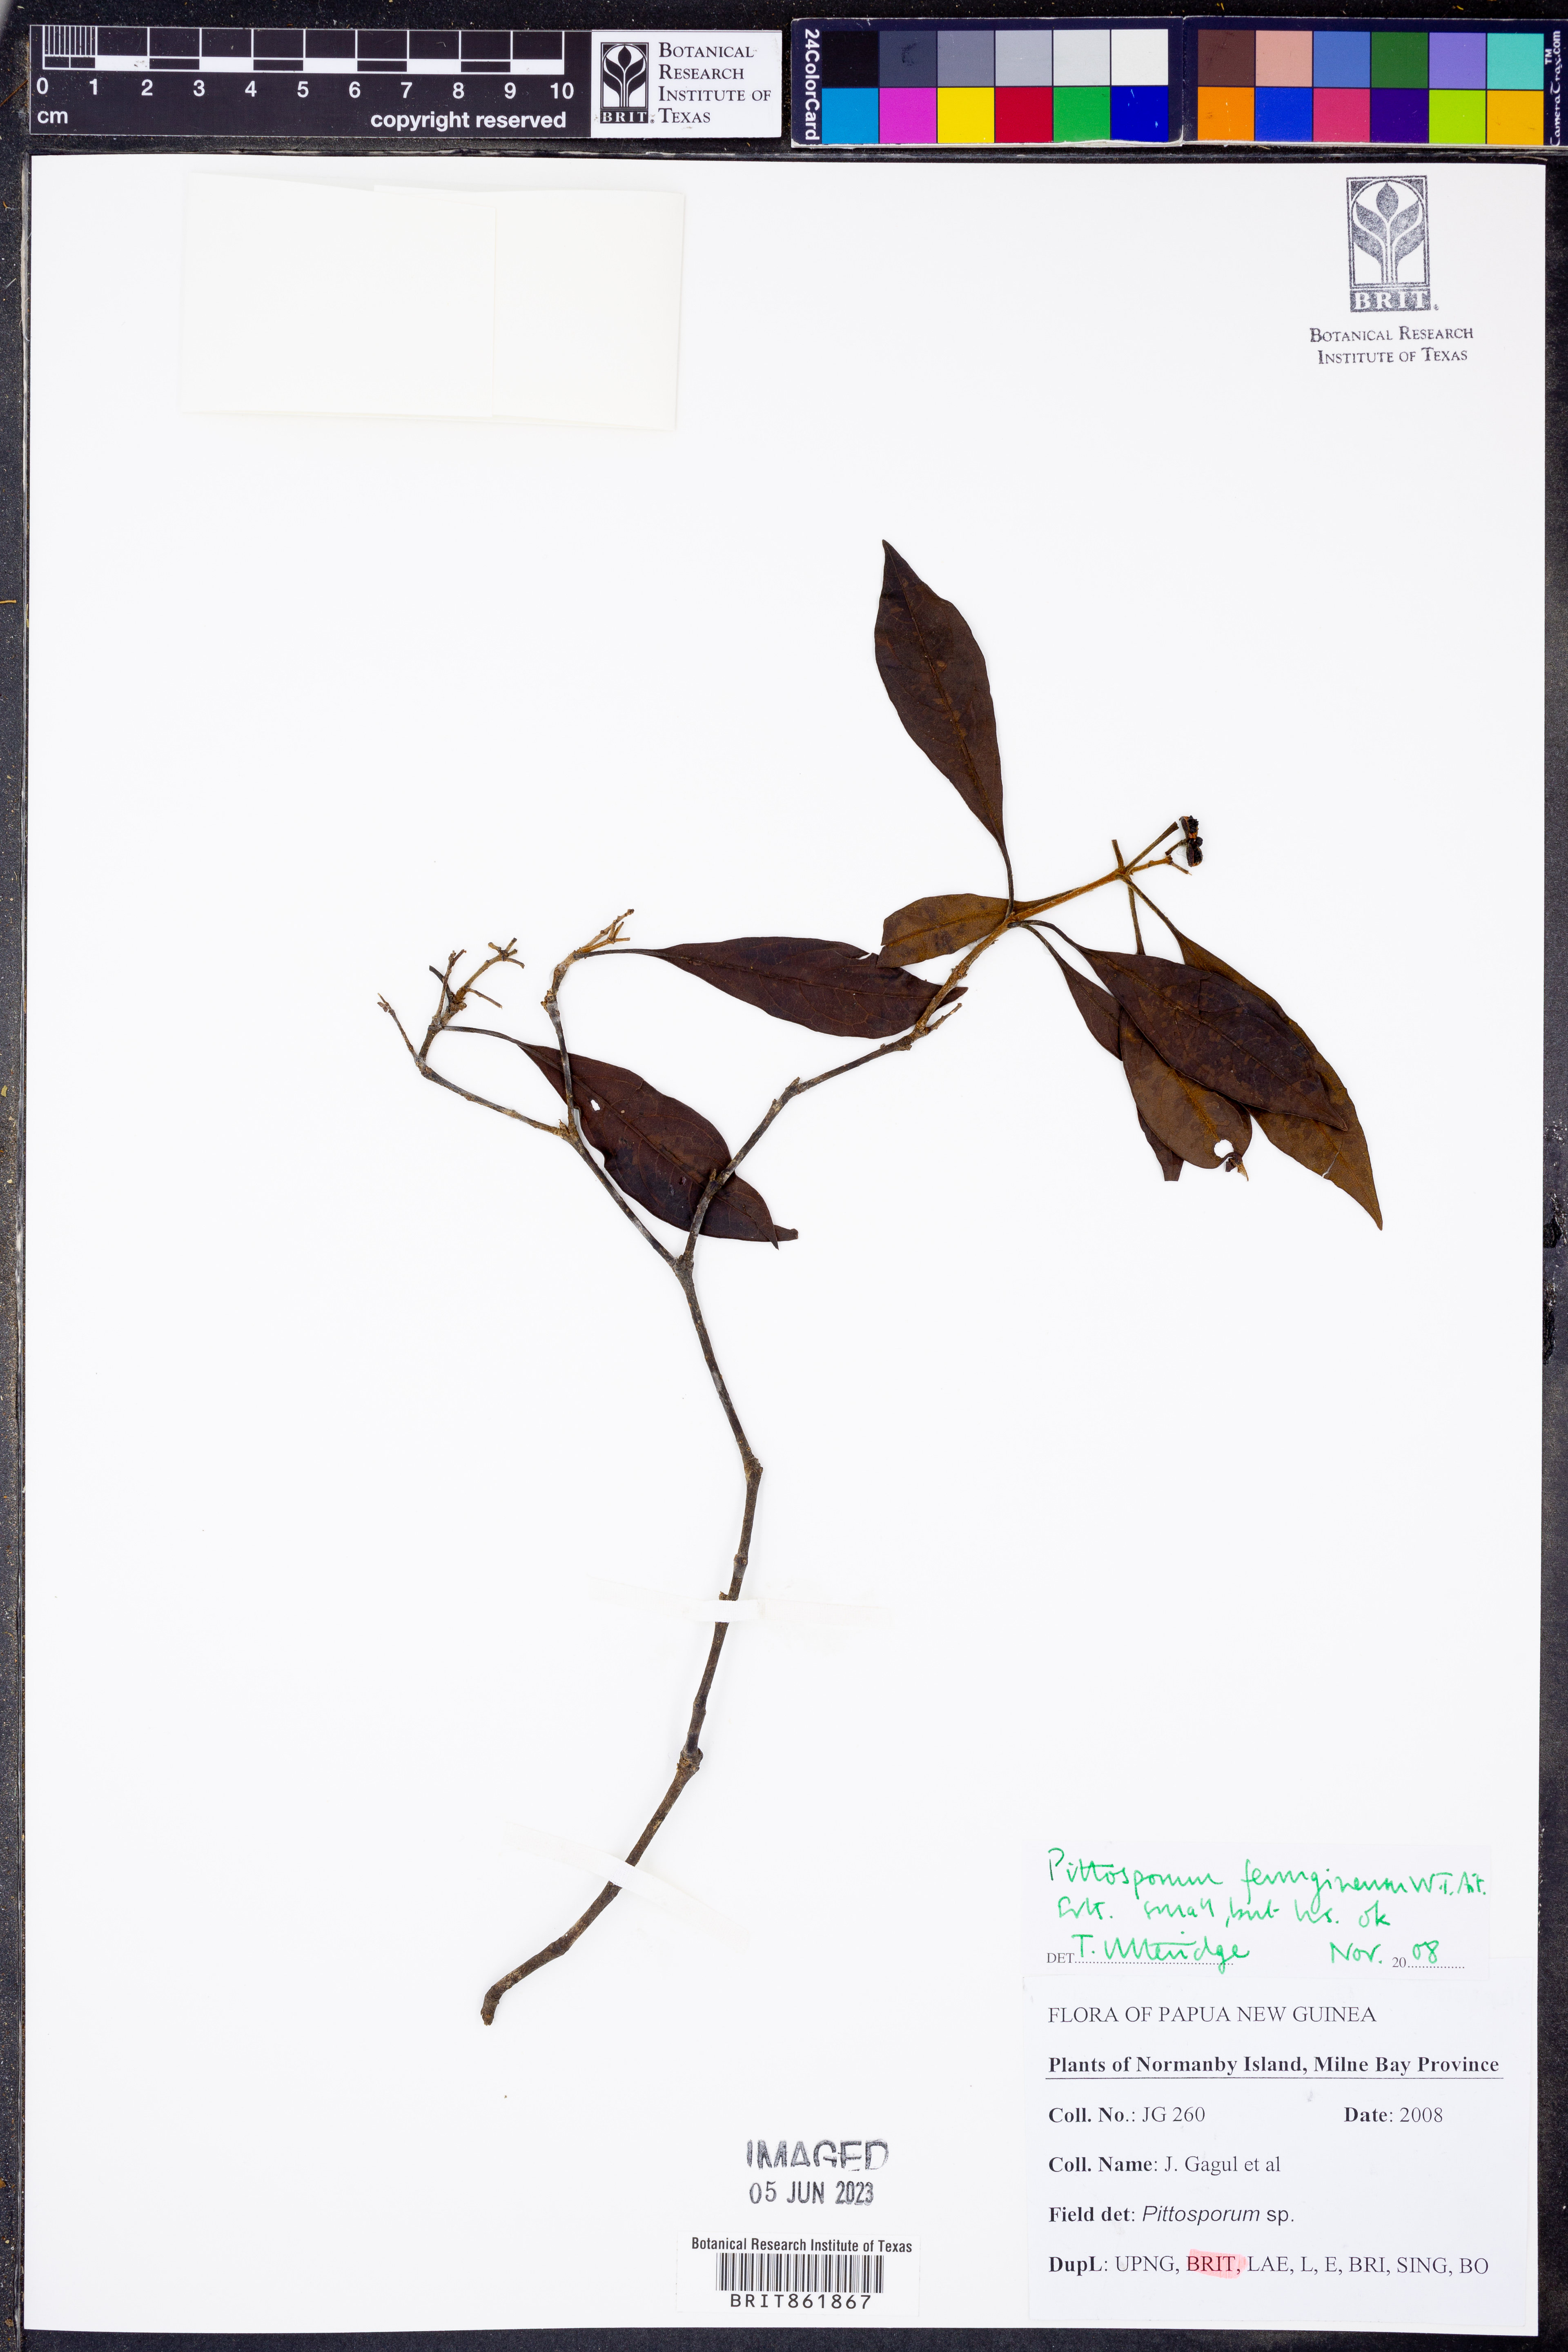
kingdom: Plantae
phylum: Tracheophyta
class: Magnoliopsida
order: Apiales
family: Pittosporaceae
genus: Pittosporum
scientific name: Pittosporum ferrugineum
